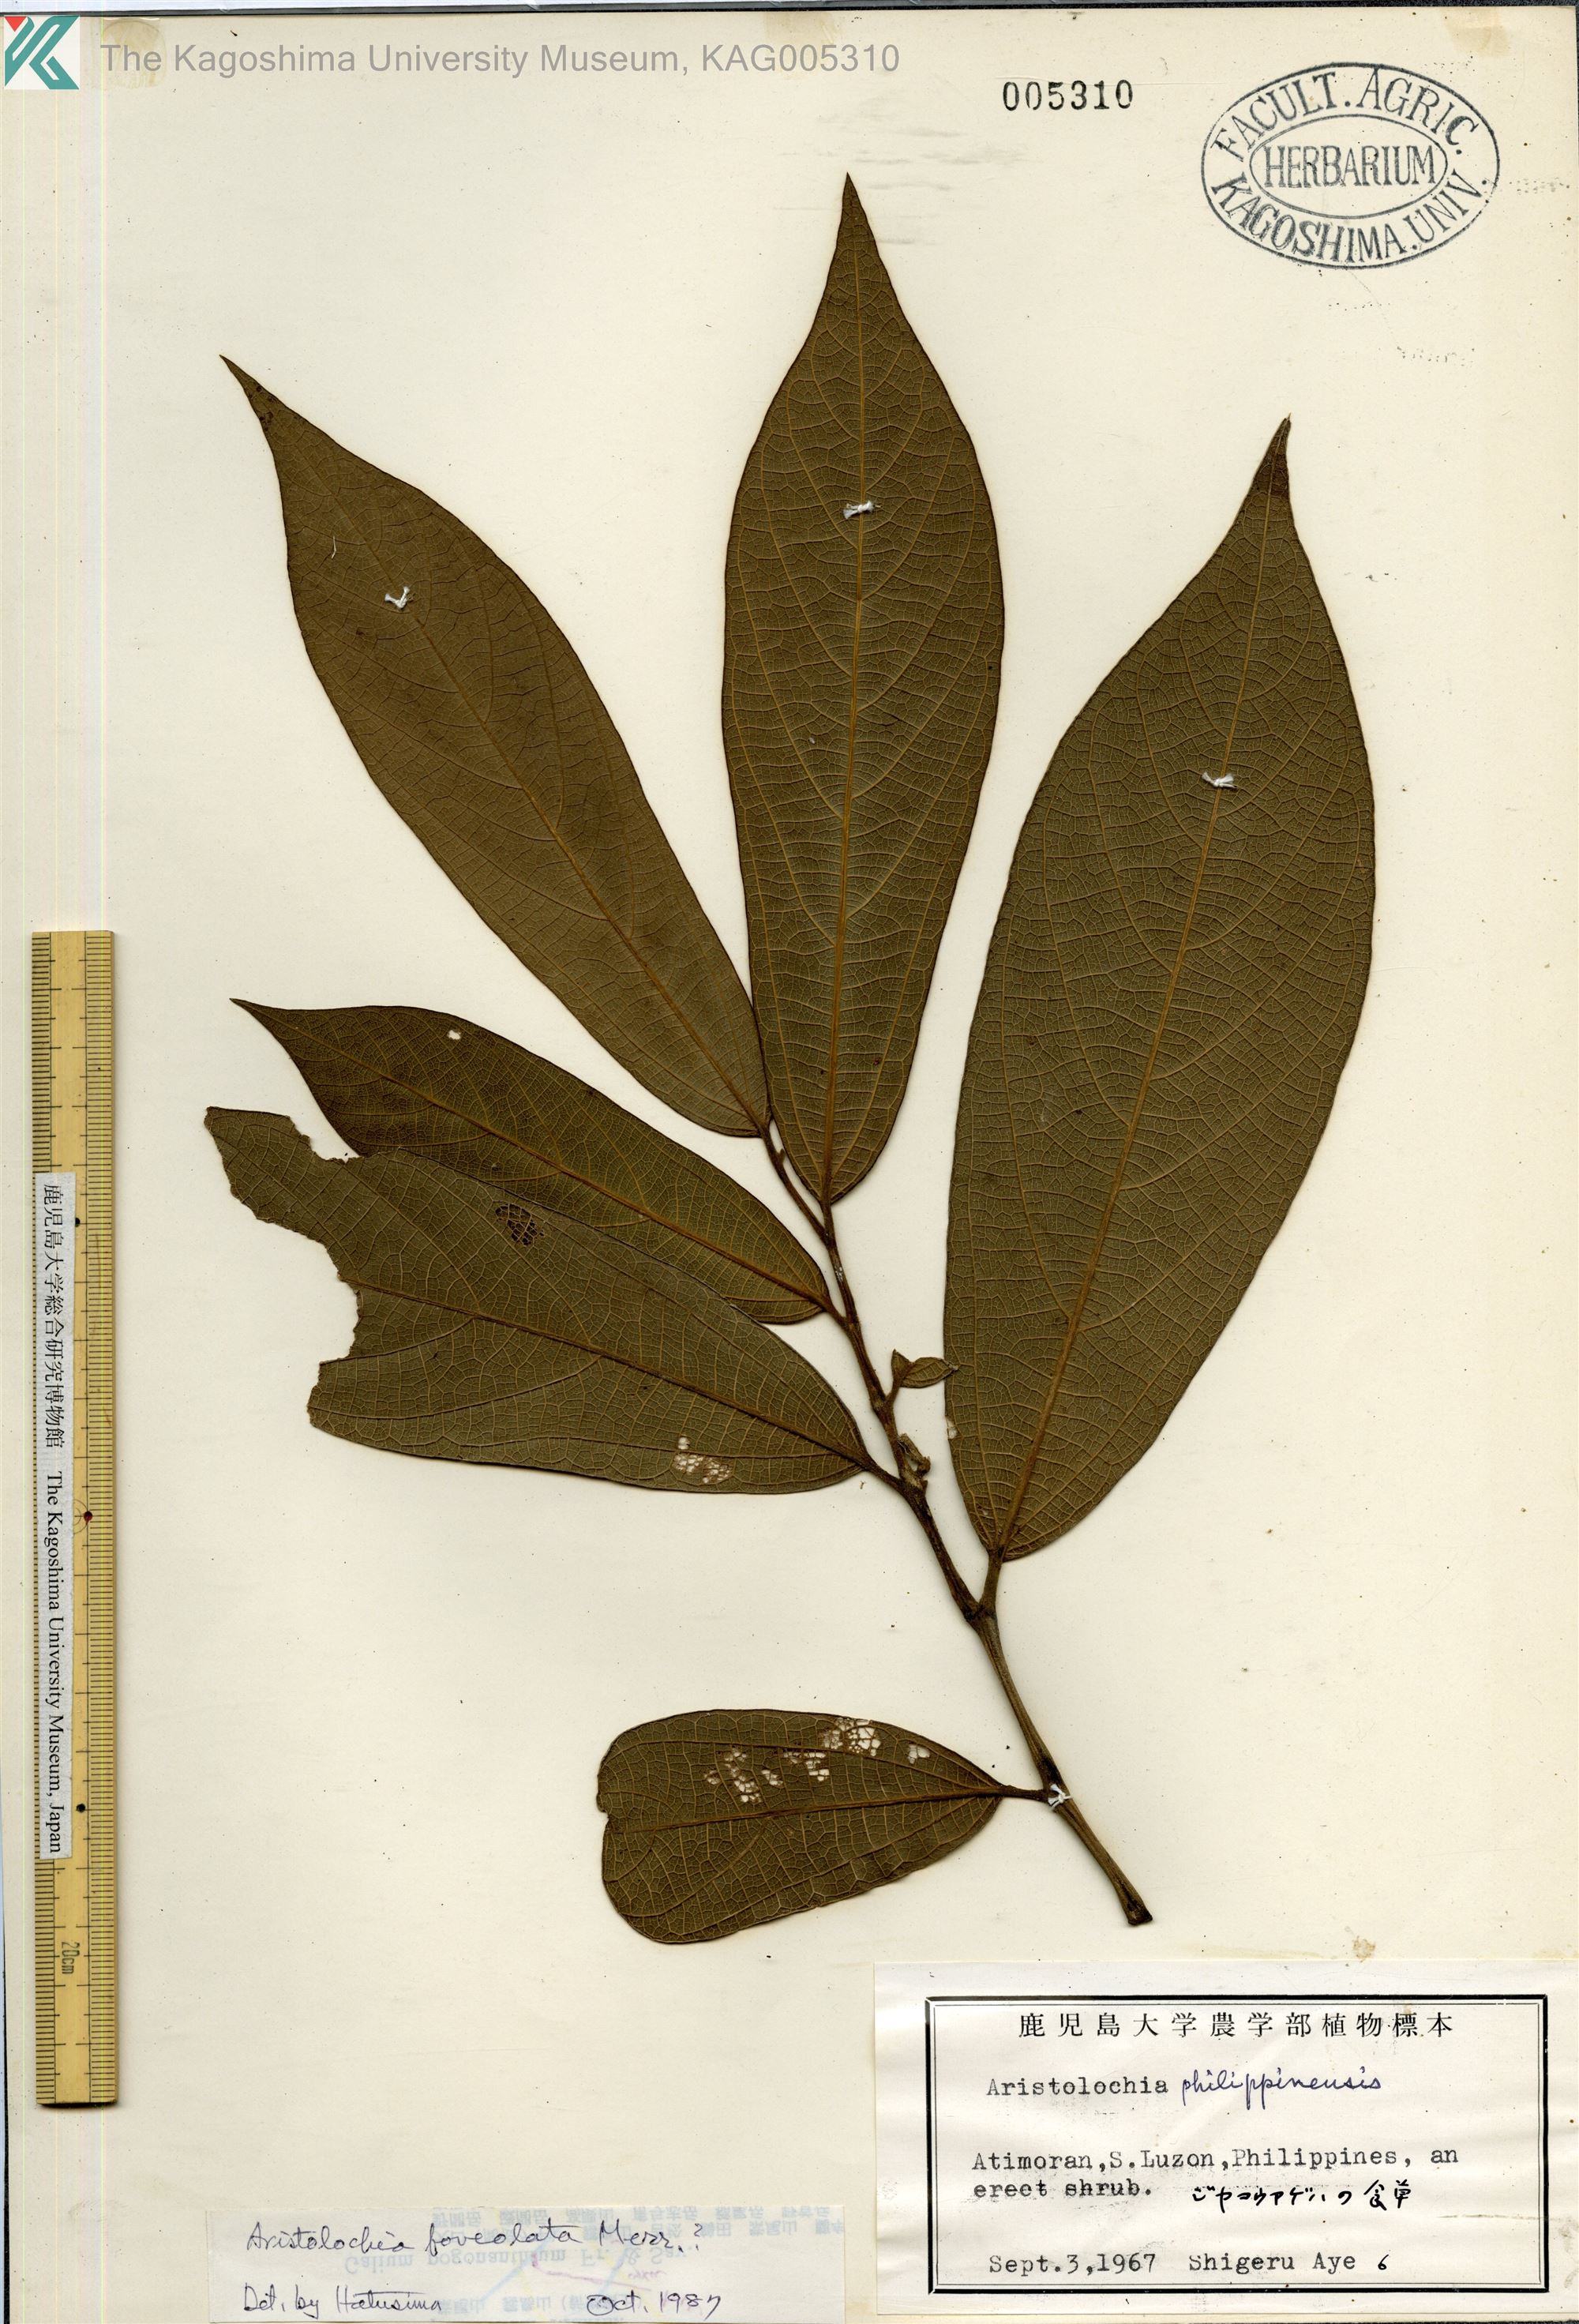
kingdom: Plantae
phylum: Tracheophyta
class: Magnoliopsida
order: Piperales
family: Aristolochiaceae
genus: Aristolochia
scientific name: Aristolochia foveolata
